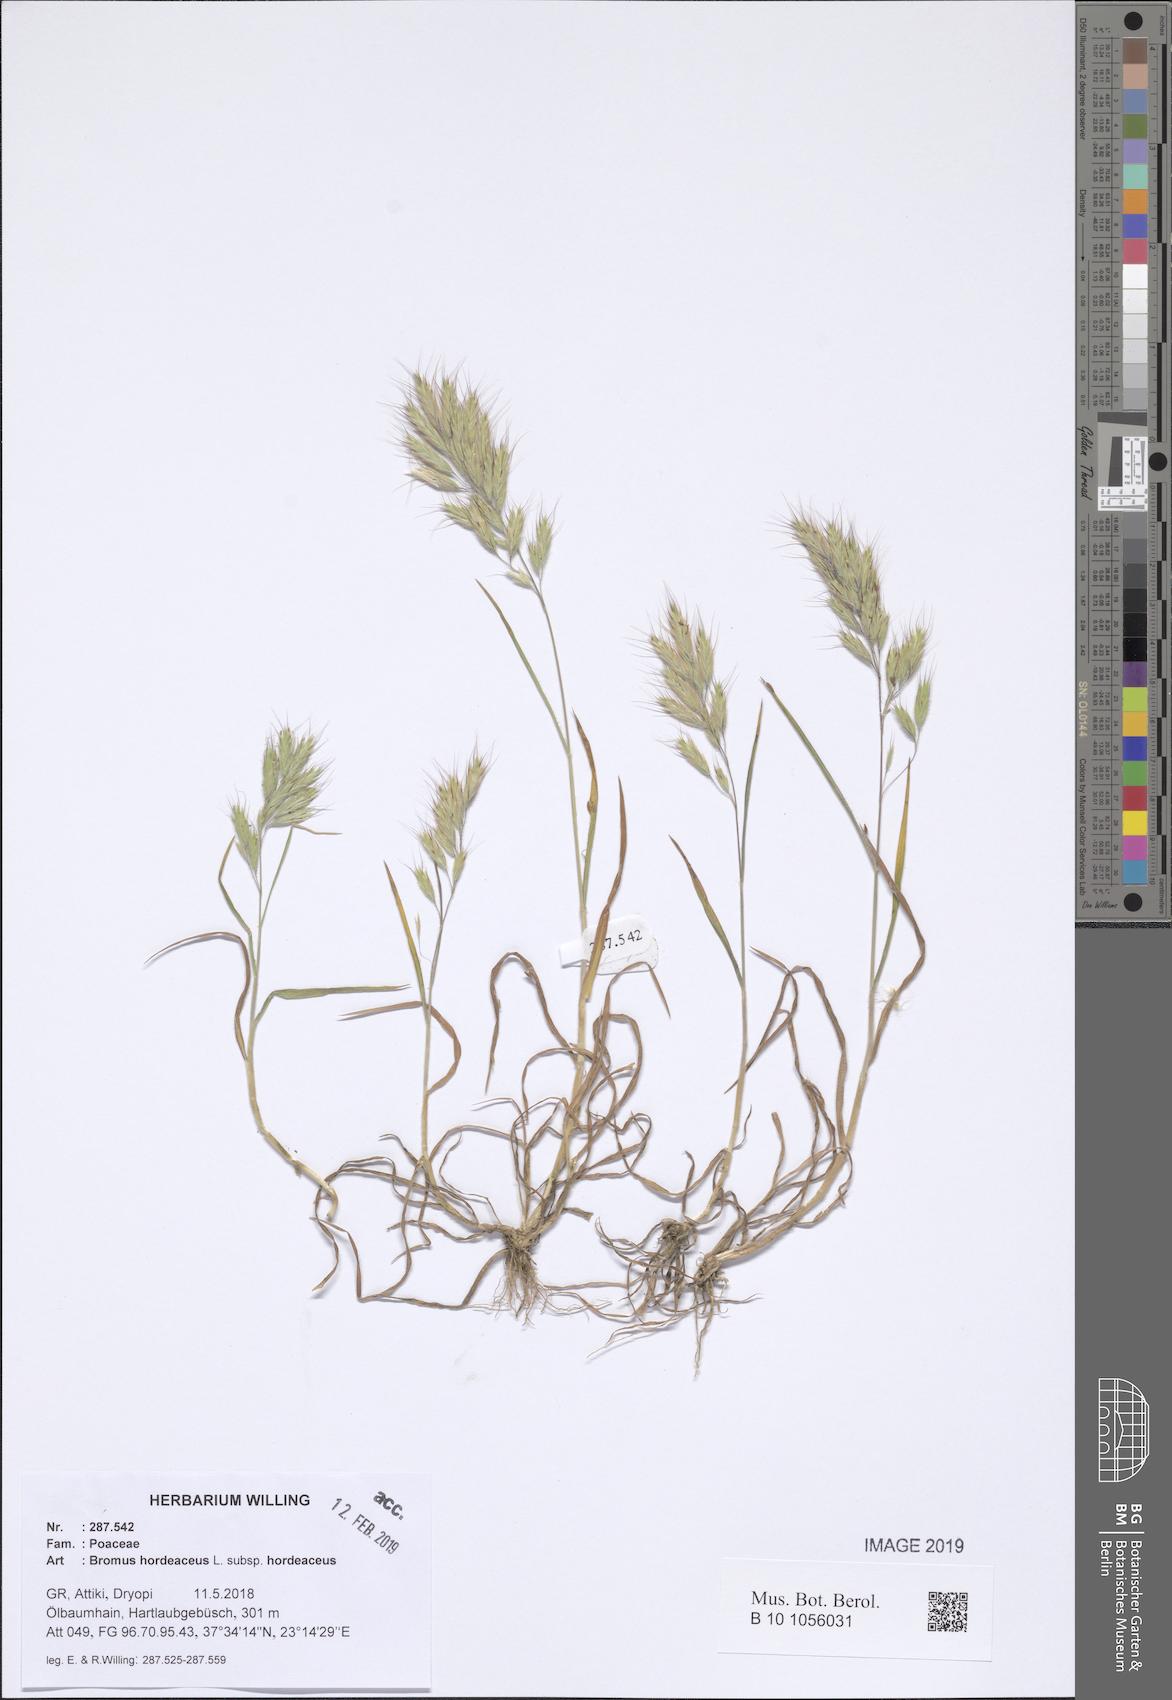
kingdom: Plantae
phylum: Tracheophyta
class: Liliopsida
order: Poales
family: Poaceae
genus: Bromus
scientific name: Bromus hordeaceus
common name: Soft brome
